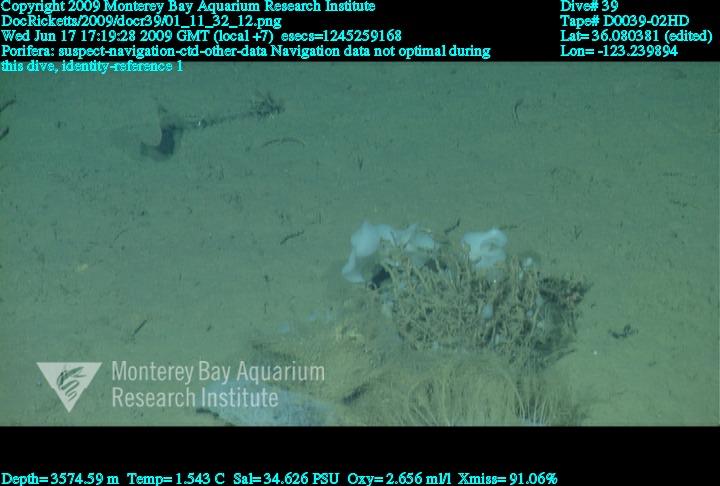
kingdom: Animalia
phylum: Porifera
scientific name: Porifera
